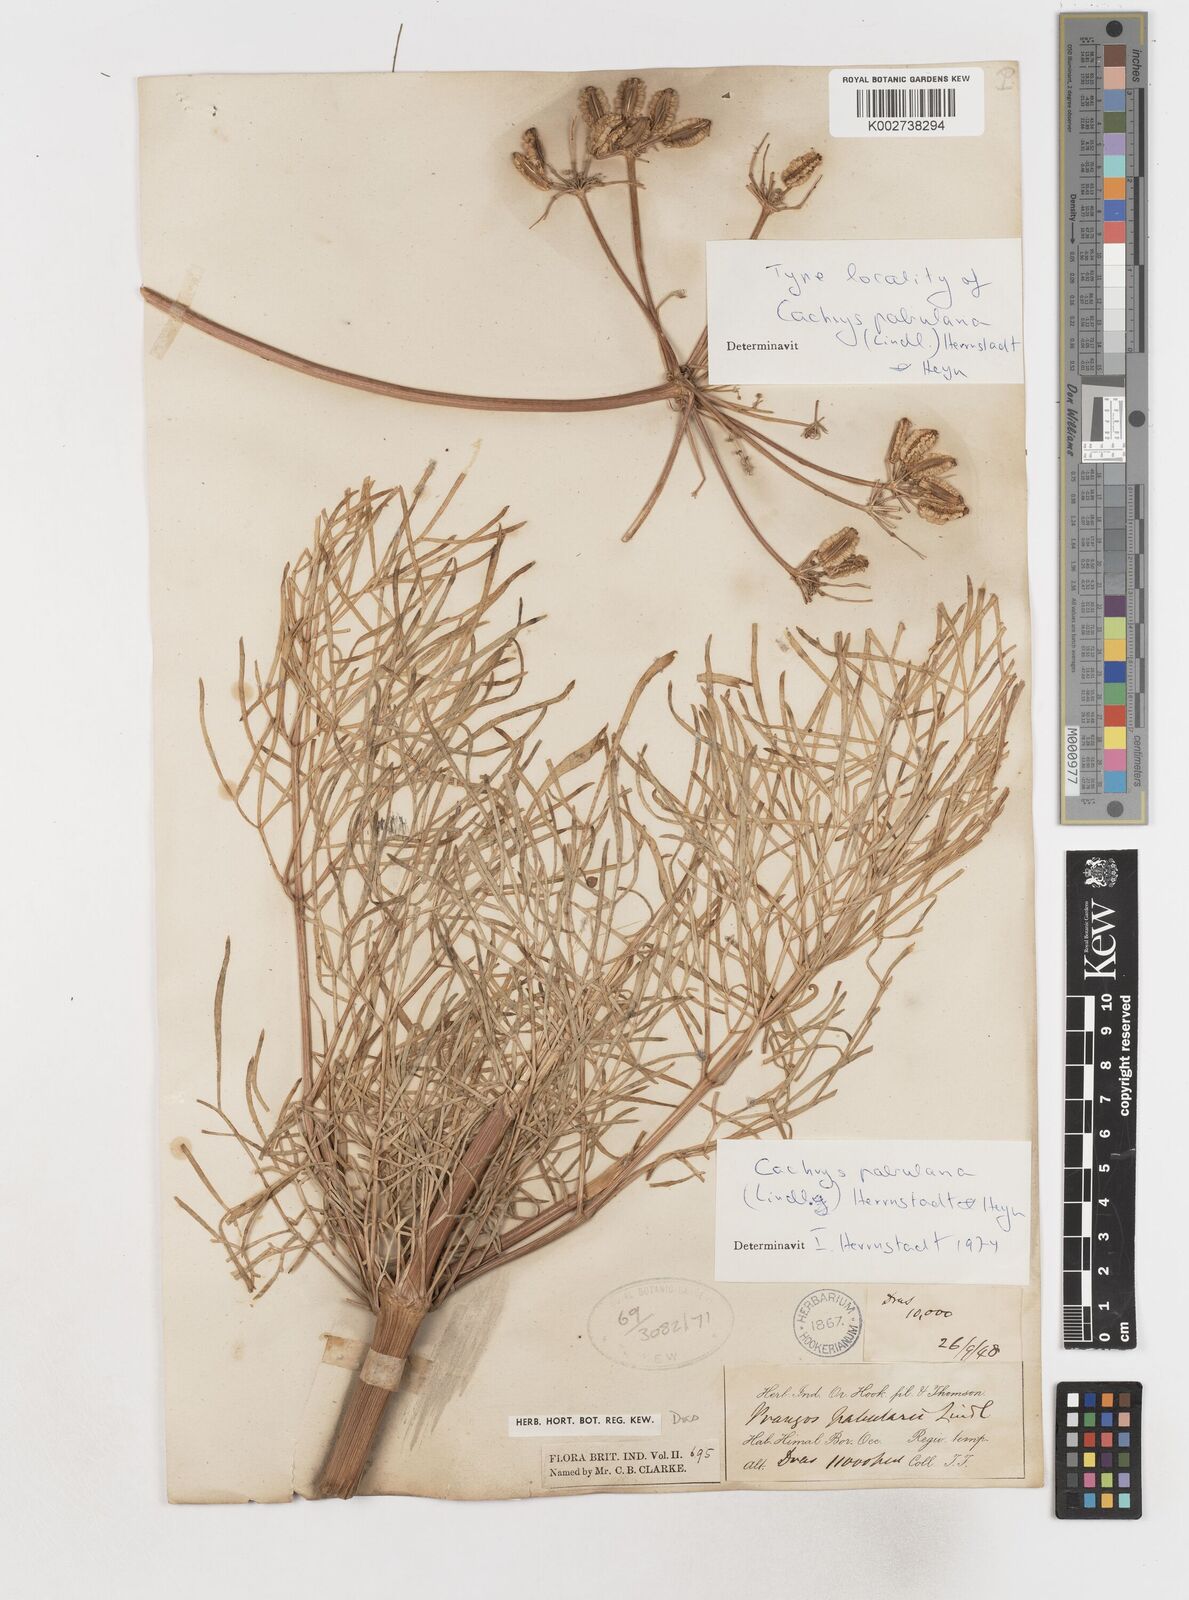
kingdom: Plantae
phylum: Tracheophyta
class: Magnoliopsida
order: Apiales
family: Apiaceae
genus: Prangos
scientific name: Prangos
